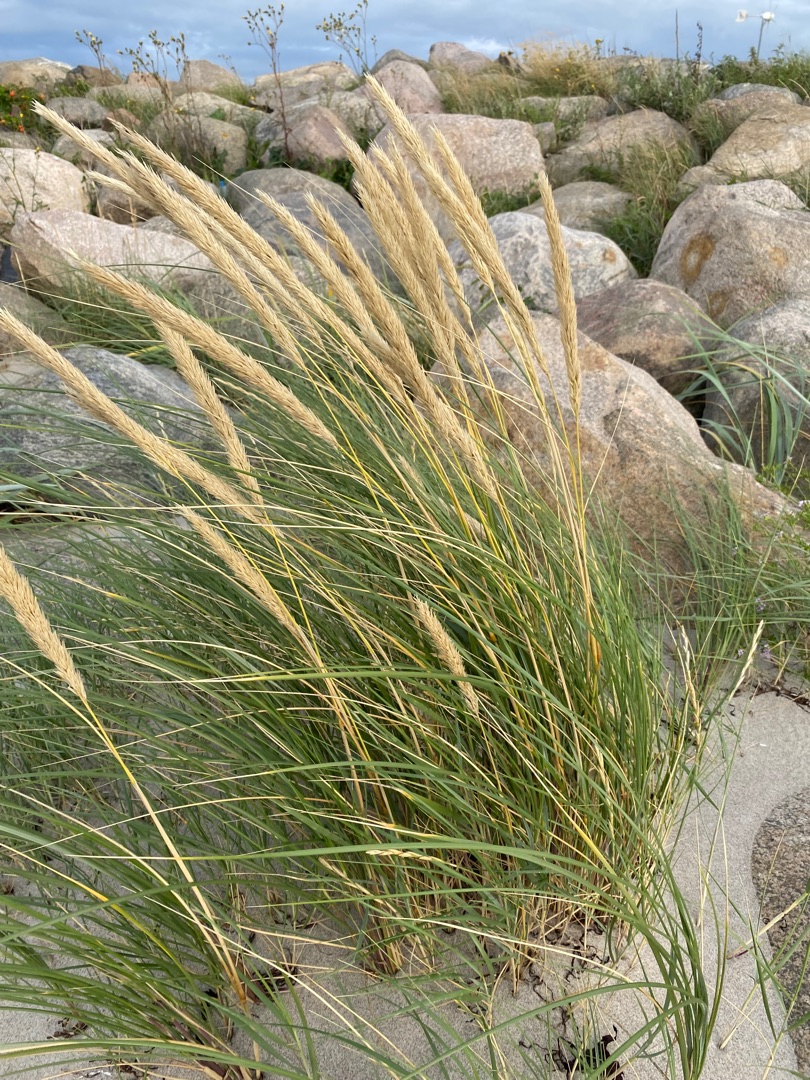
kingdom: Plantae
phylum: Tracheophyta
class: Liliopsida
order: Poales
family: Poaceae
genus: Calamagrostis
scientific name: Calamagrostis arenaria
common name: Sand-hjælme
